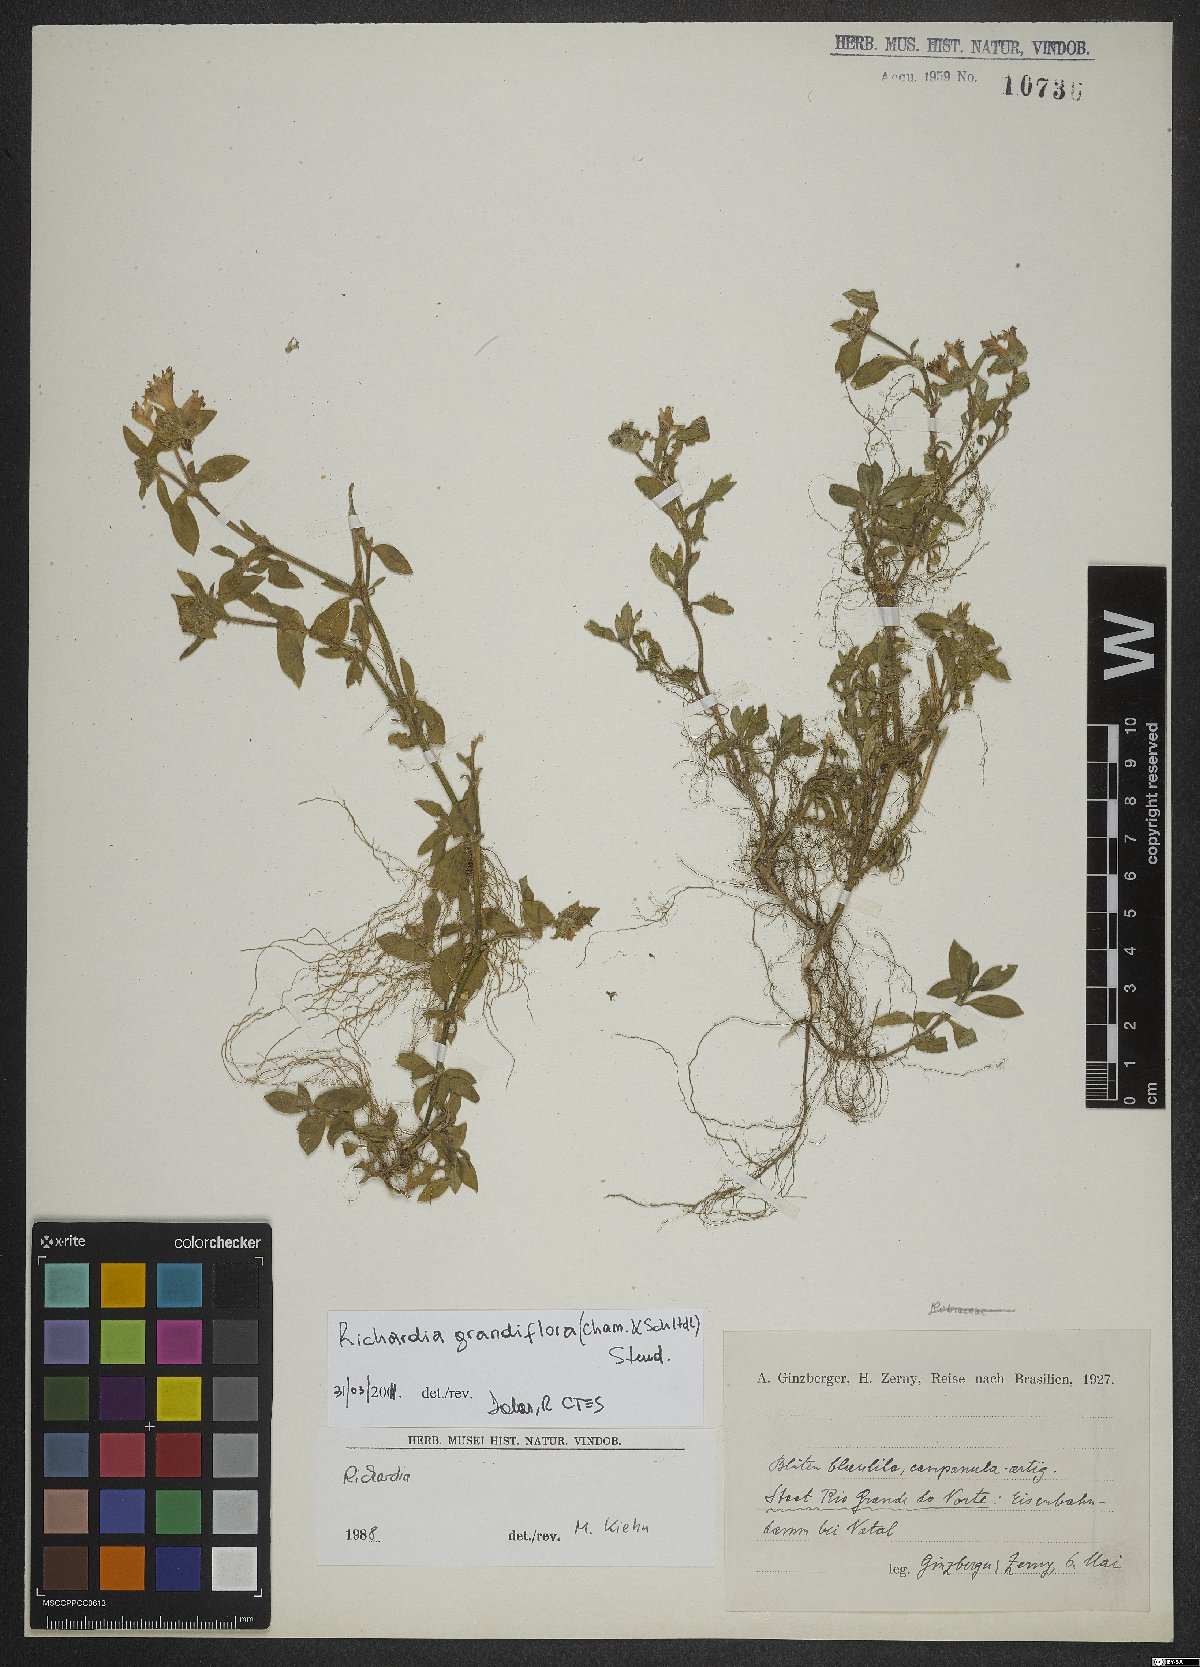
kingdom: Plantae
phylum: Tracheophyta
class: Magnoliopsida
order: Gentianales
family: Rubiaceae
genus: Richardia
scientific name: Richardia grandiflora
